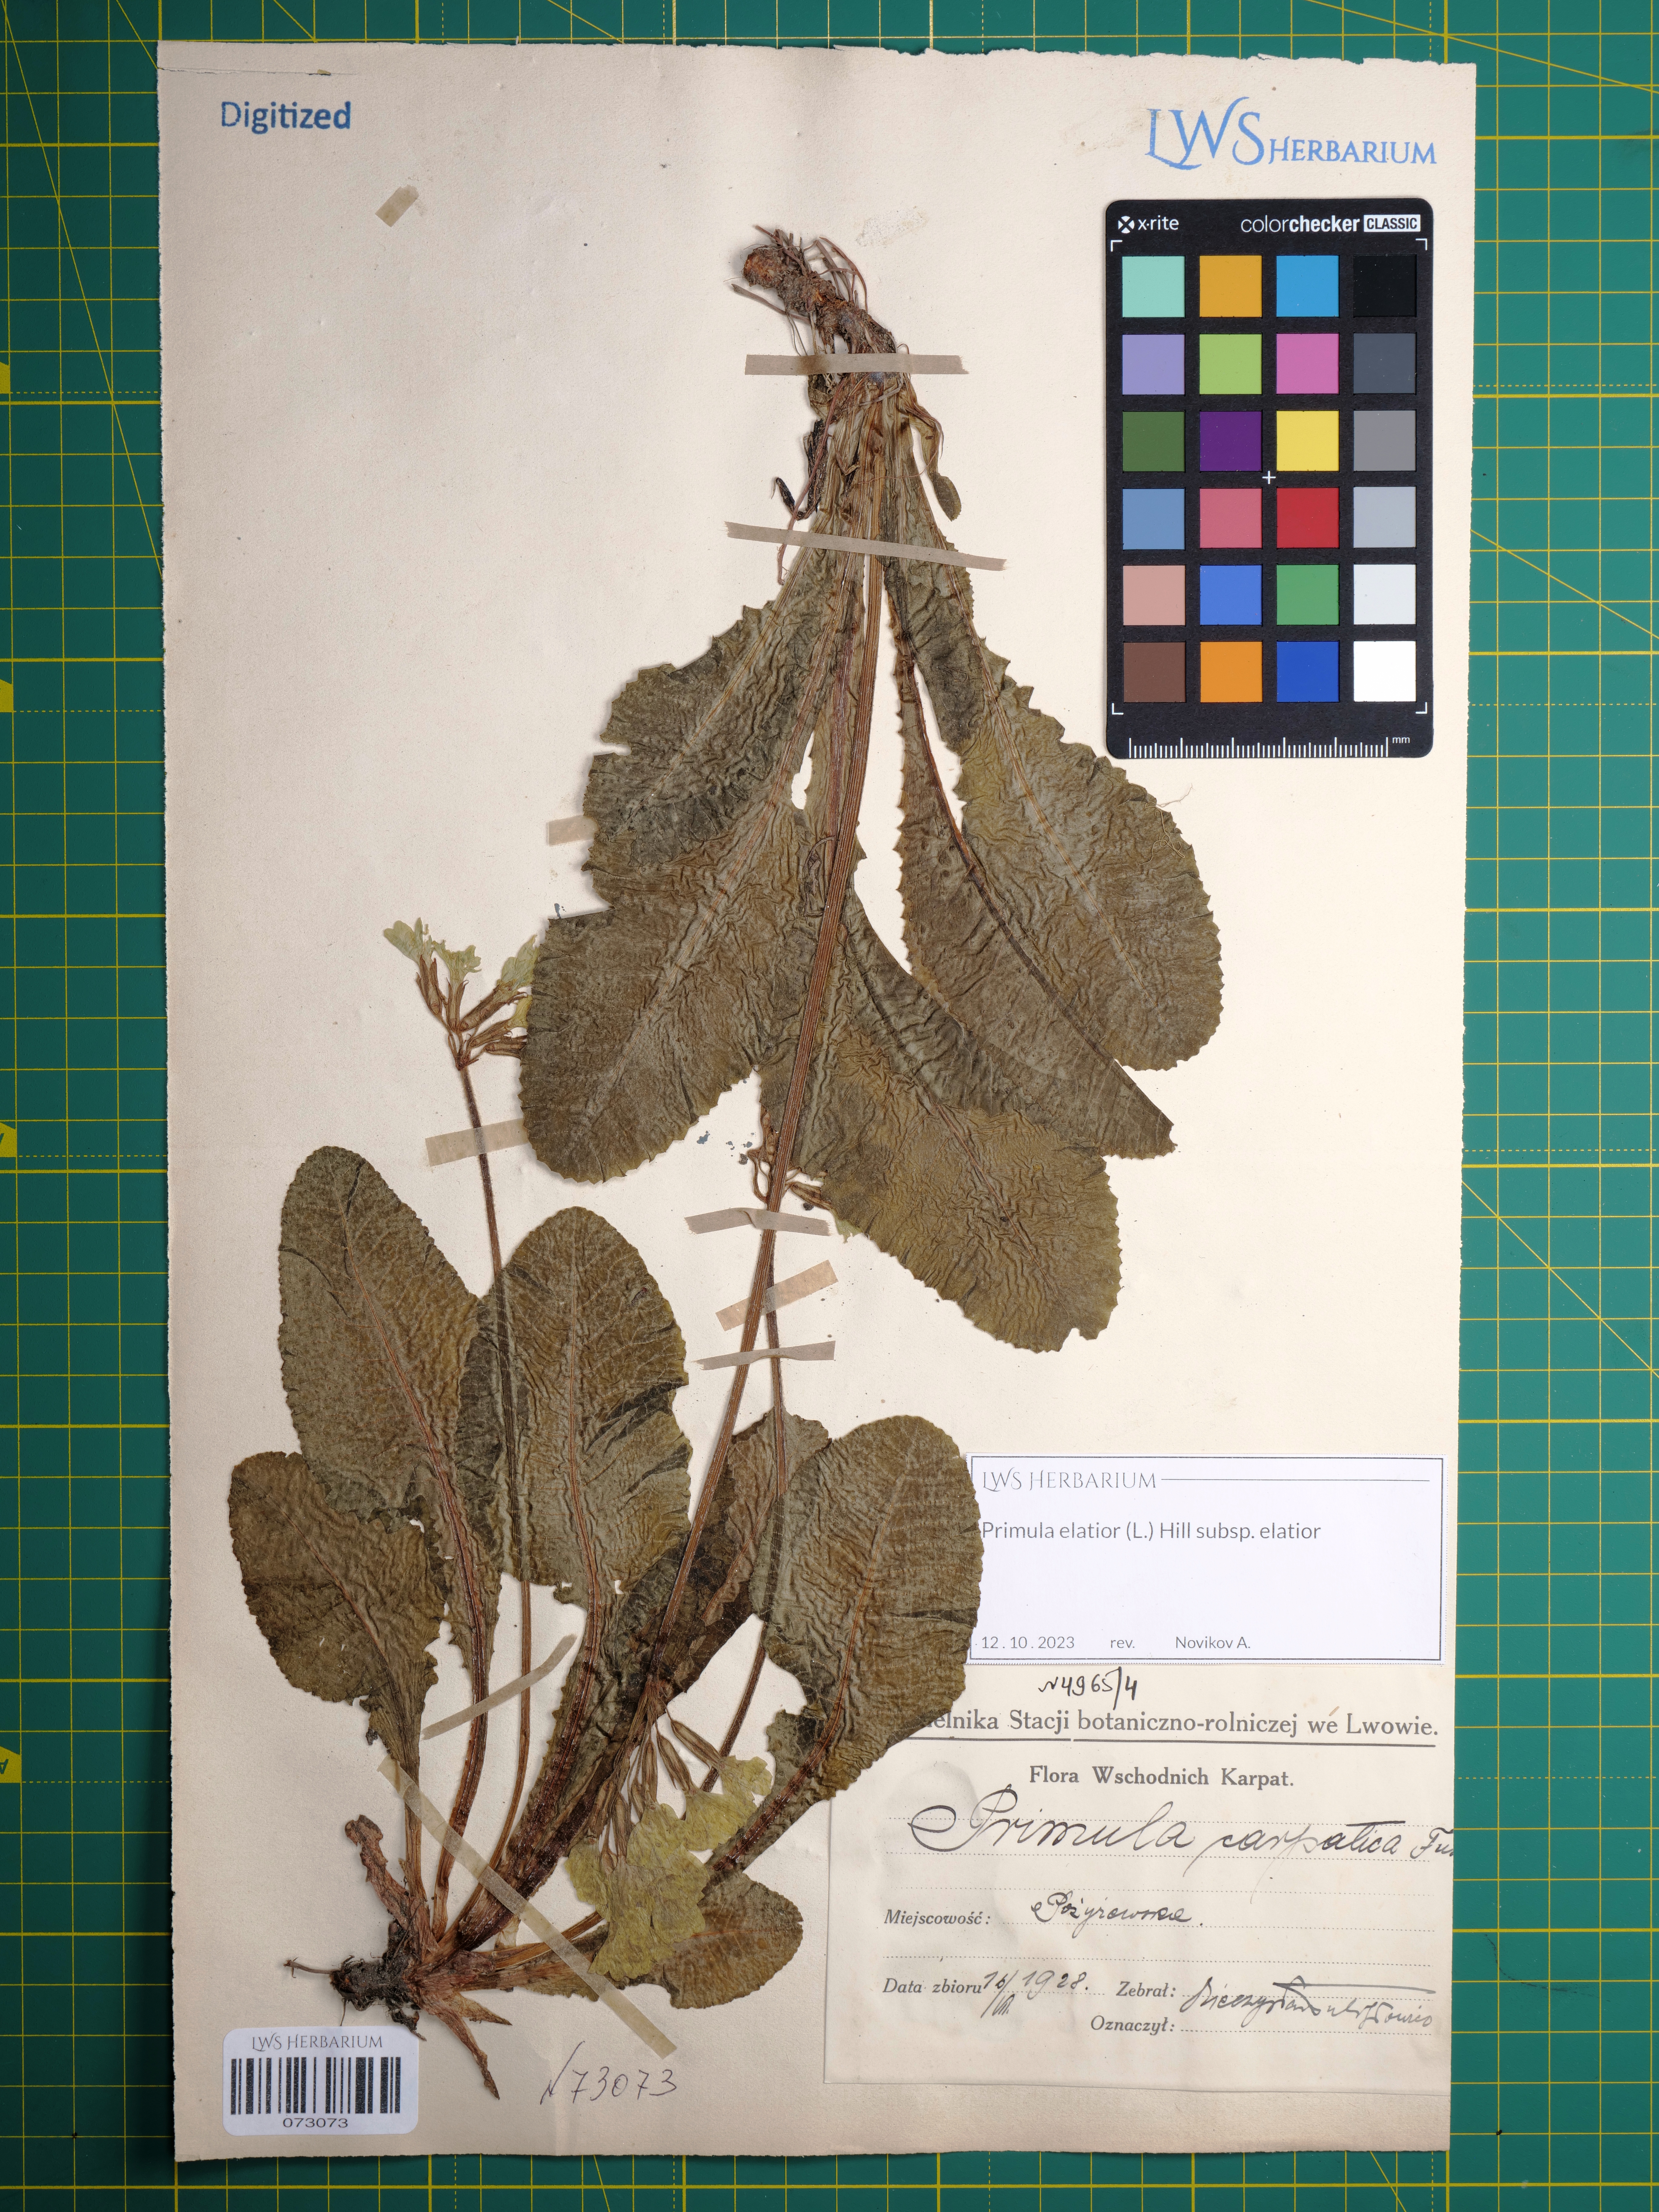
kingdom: Plantae
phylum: Tracheophyta
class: Magnoliopsida
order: Ericales
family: Primulaceae
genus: Primula
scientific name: Primula elatior
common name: Oxlip
